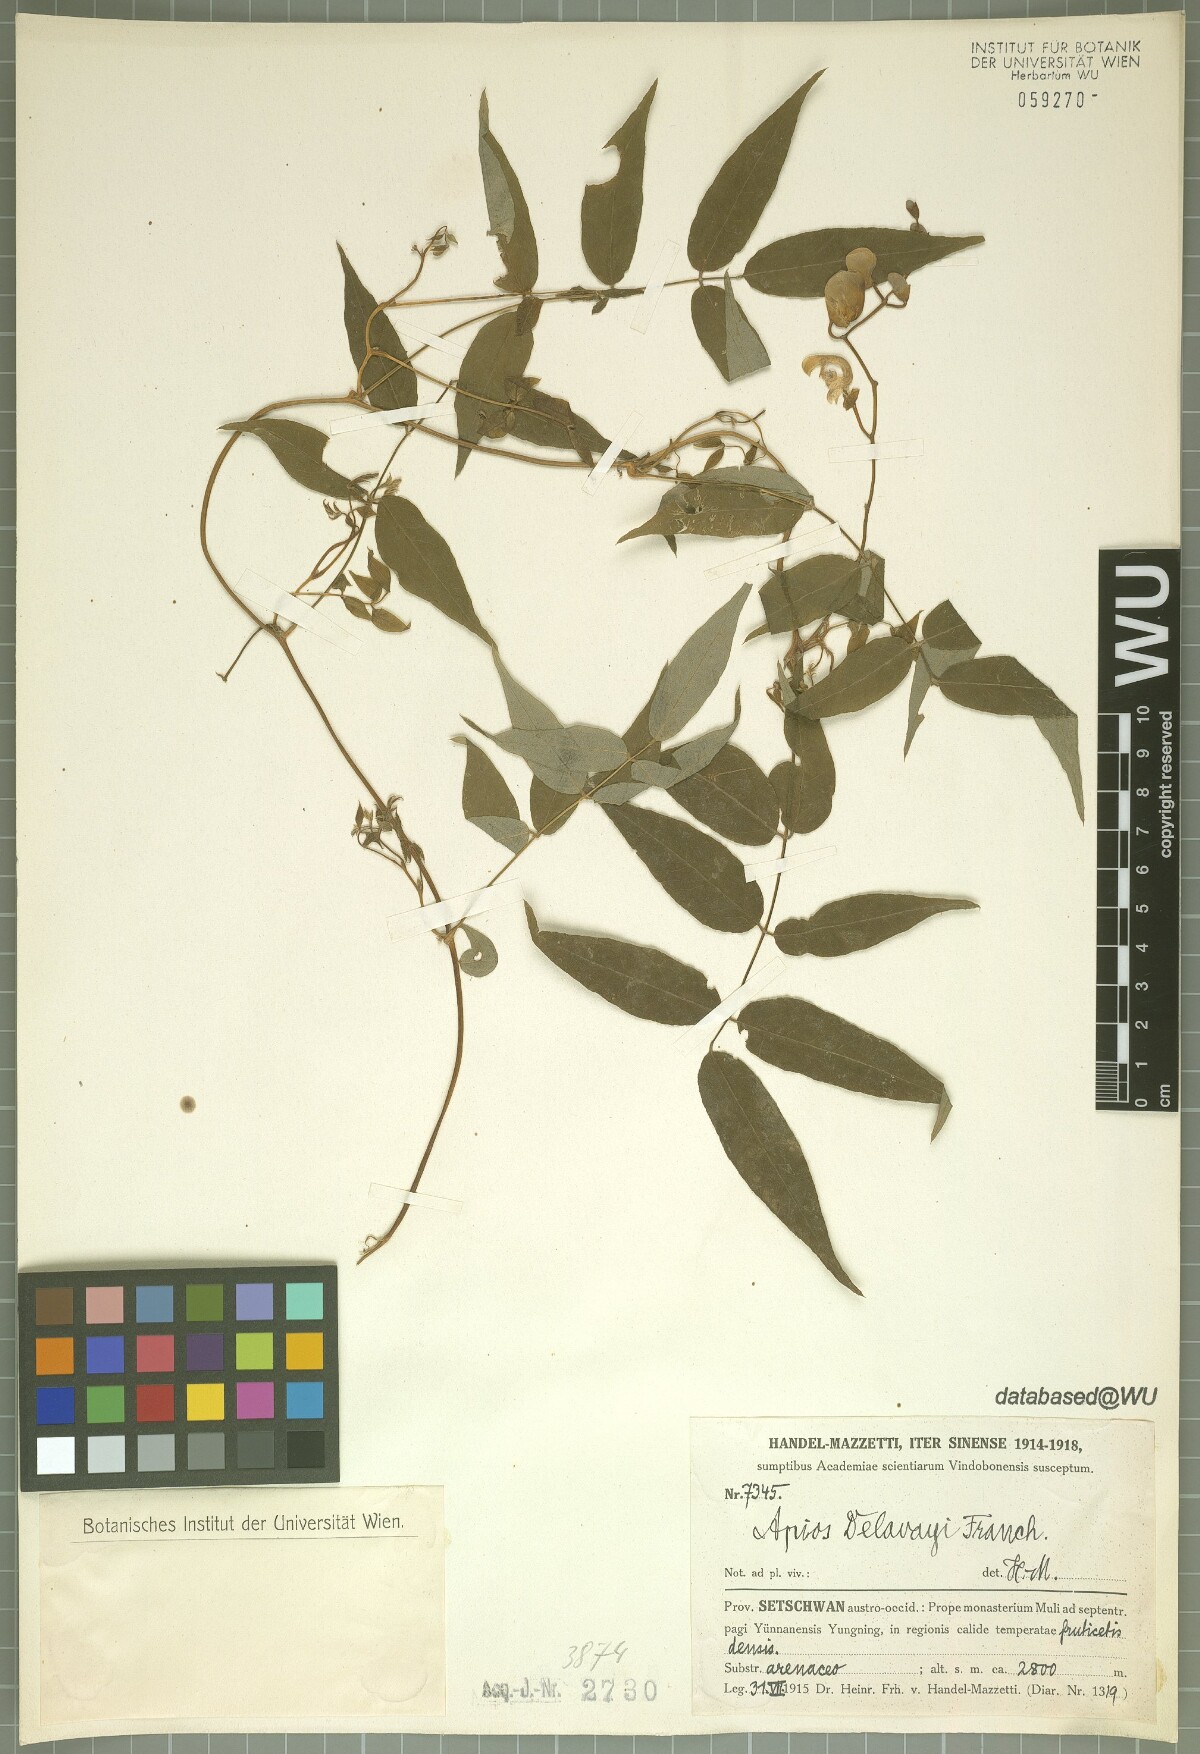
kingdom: Plantae
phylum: Tracheophyta
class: Magnoliopsida
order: Fabales
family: Fabaceae
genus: Apios
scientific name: Apios delavayi
